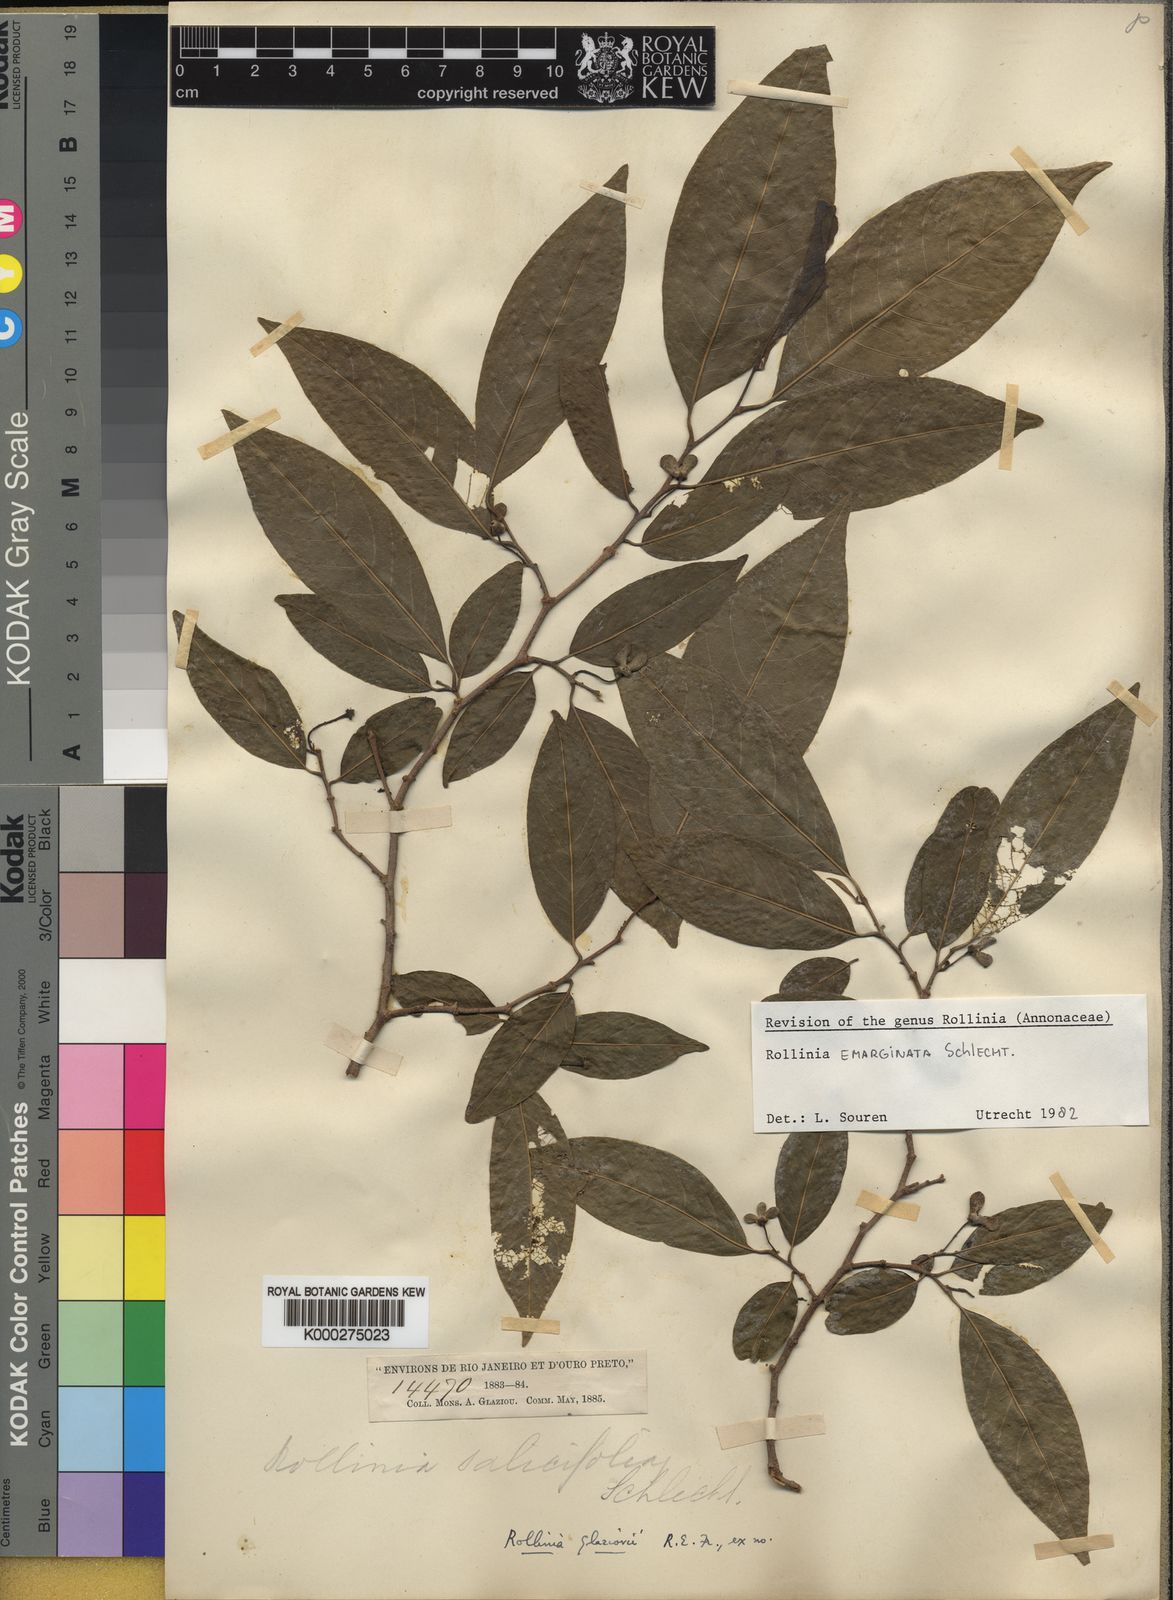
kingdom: Plantae
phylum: Tracheophyta
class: Magnoliopsida
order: Magnoliales
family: Annonaceae
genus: Annona
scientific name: Annona emarginata
